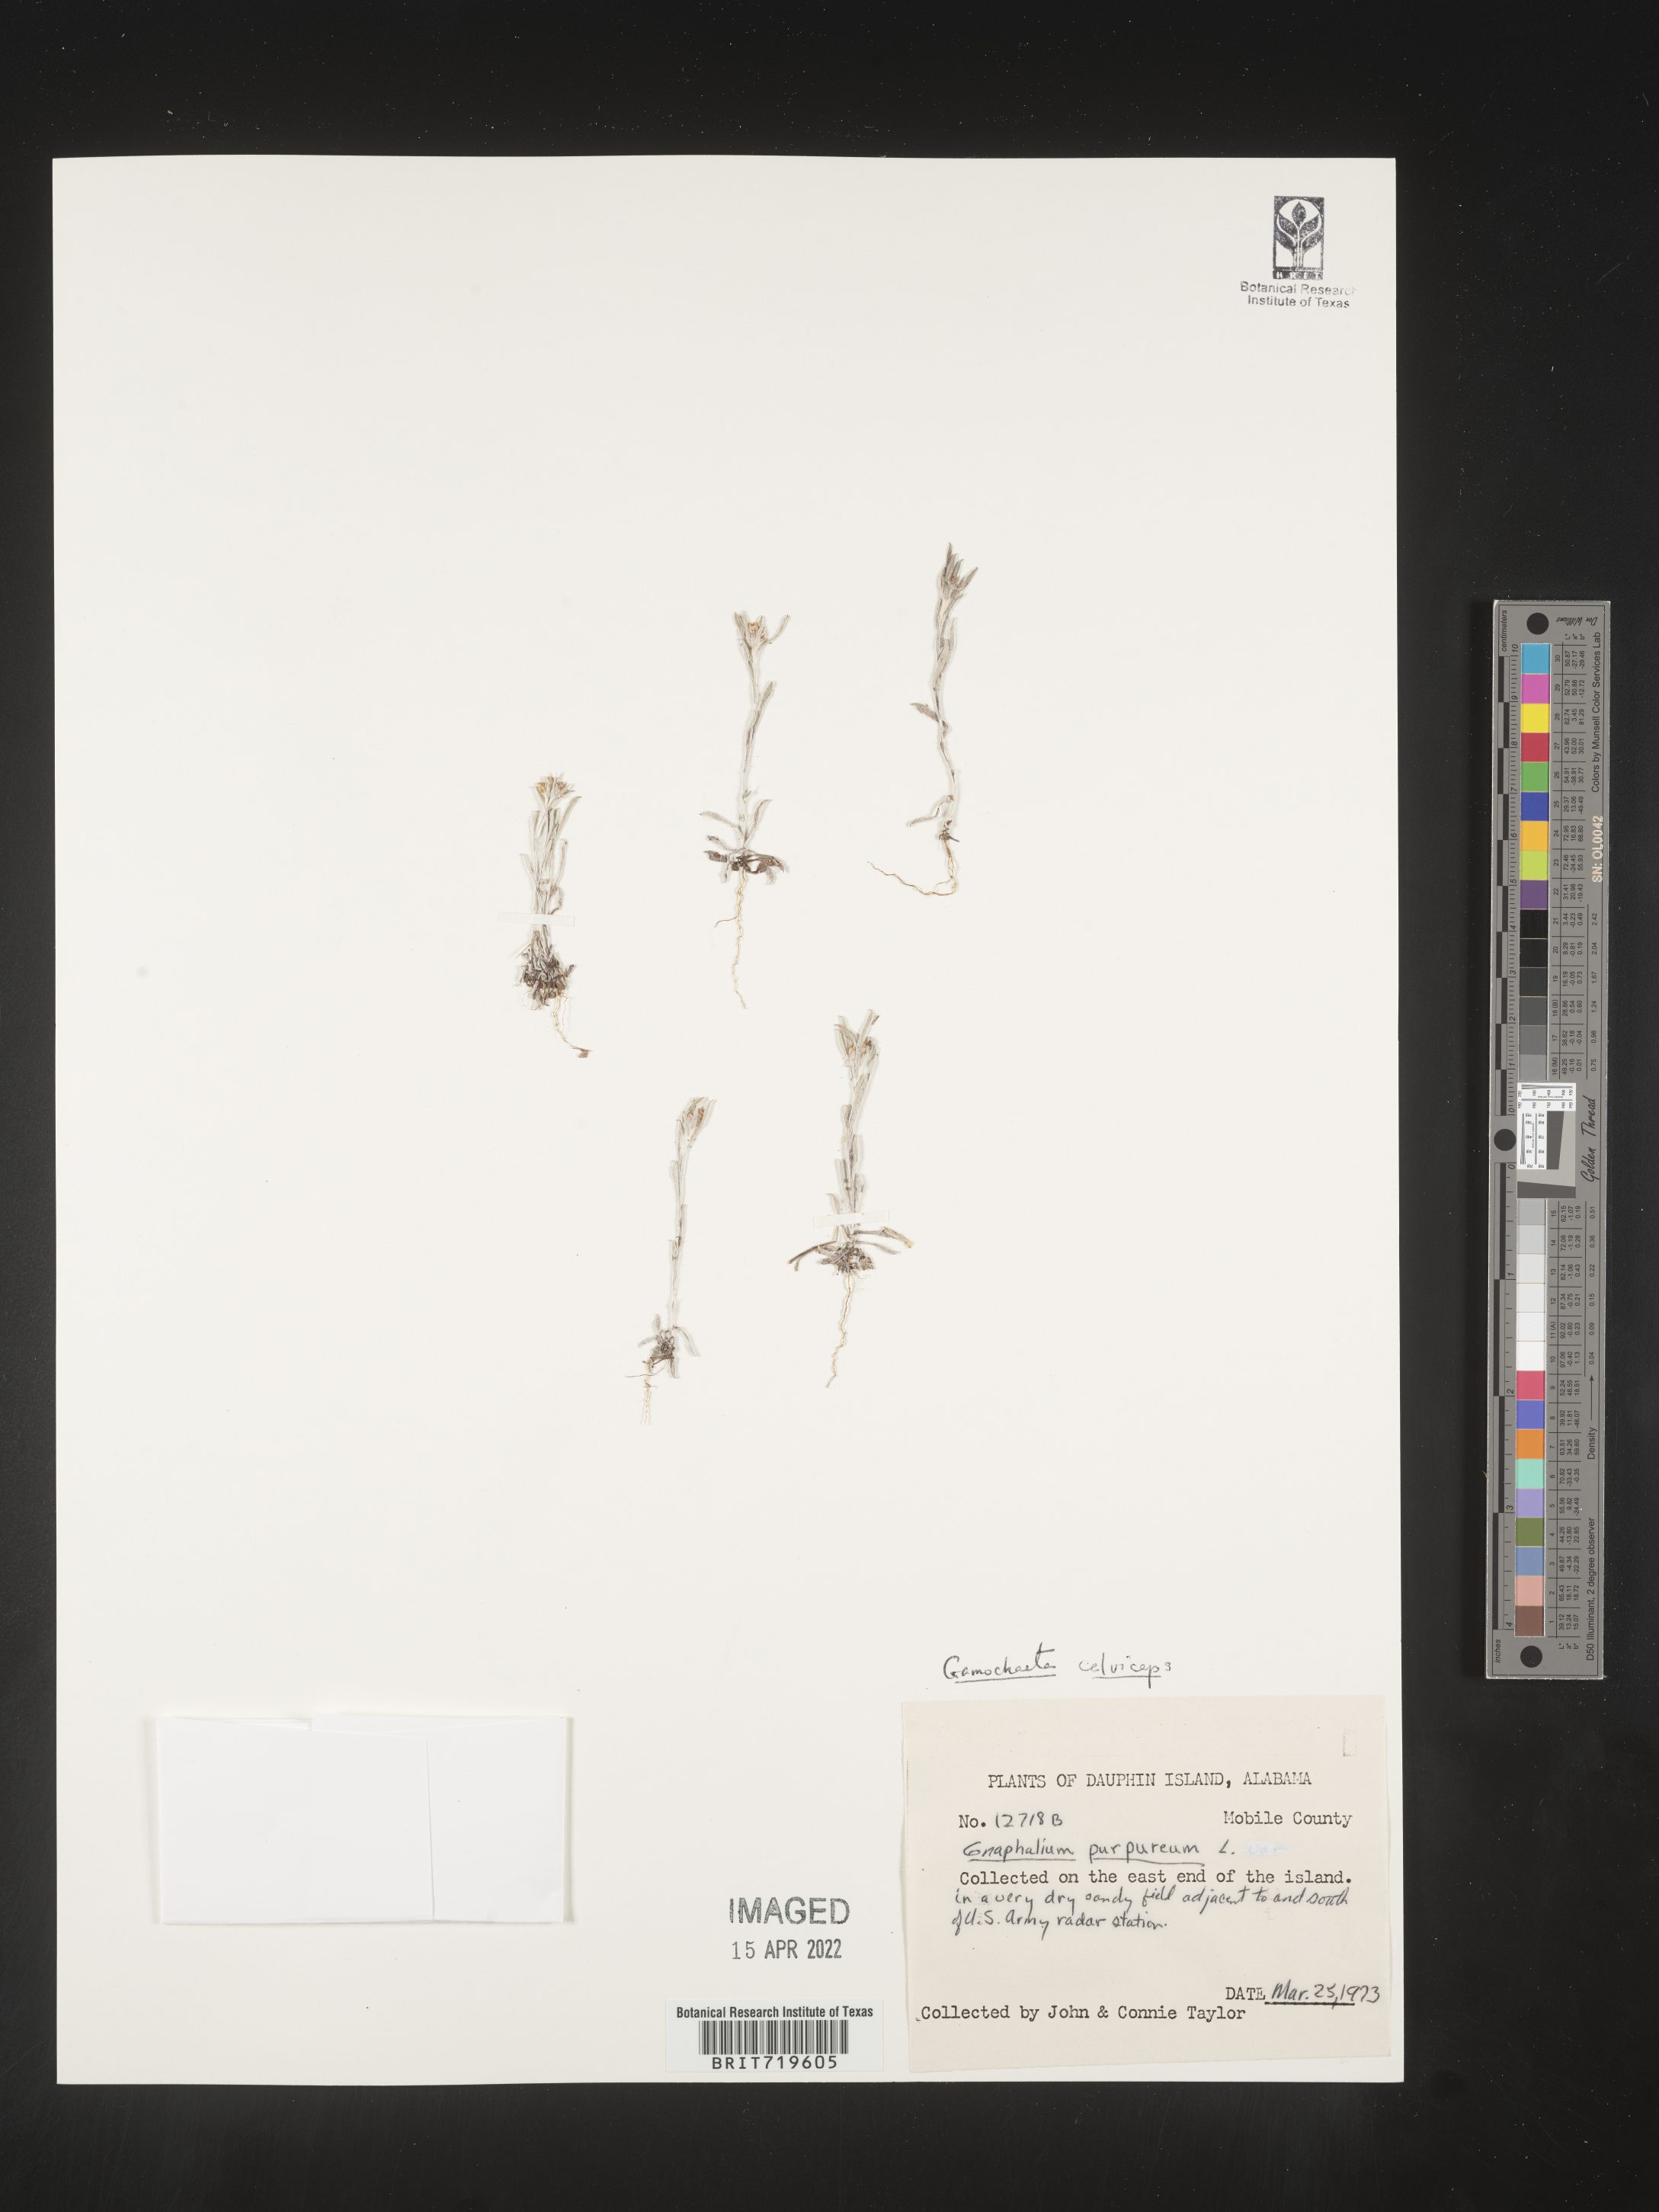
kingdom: Plantae
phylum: Tracheophyta
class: Magnoliopsida
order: Asterales
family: Asteraceae
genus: Gamochaeta
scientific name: Gamochaeta antillana
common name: Delicate everlasting
